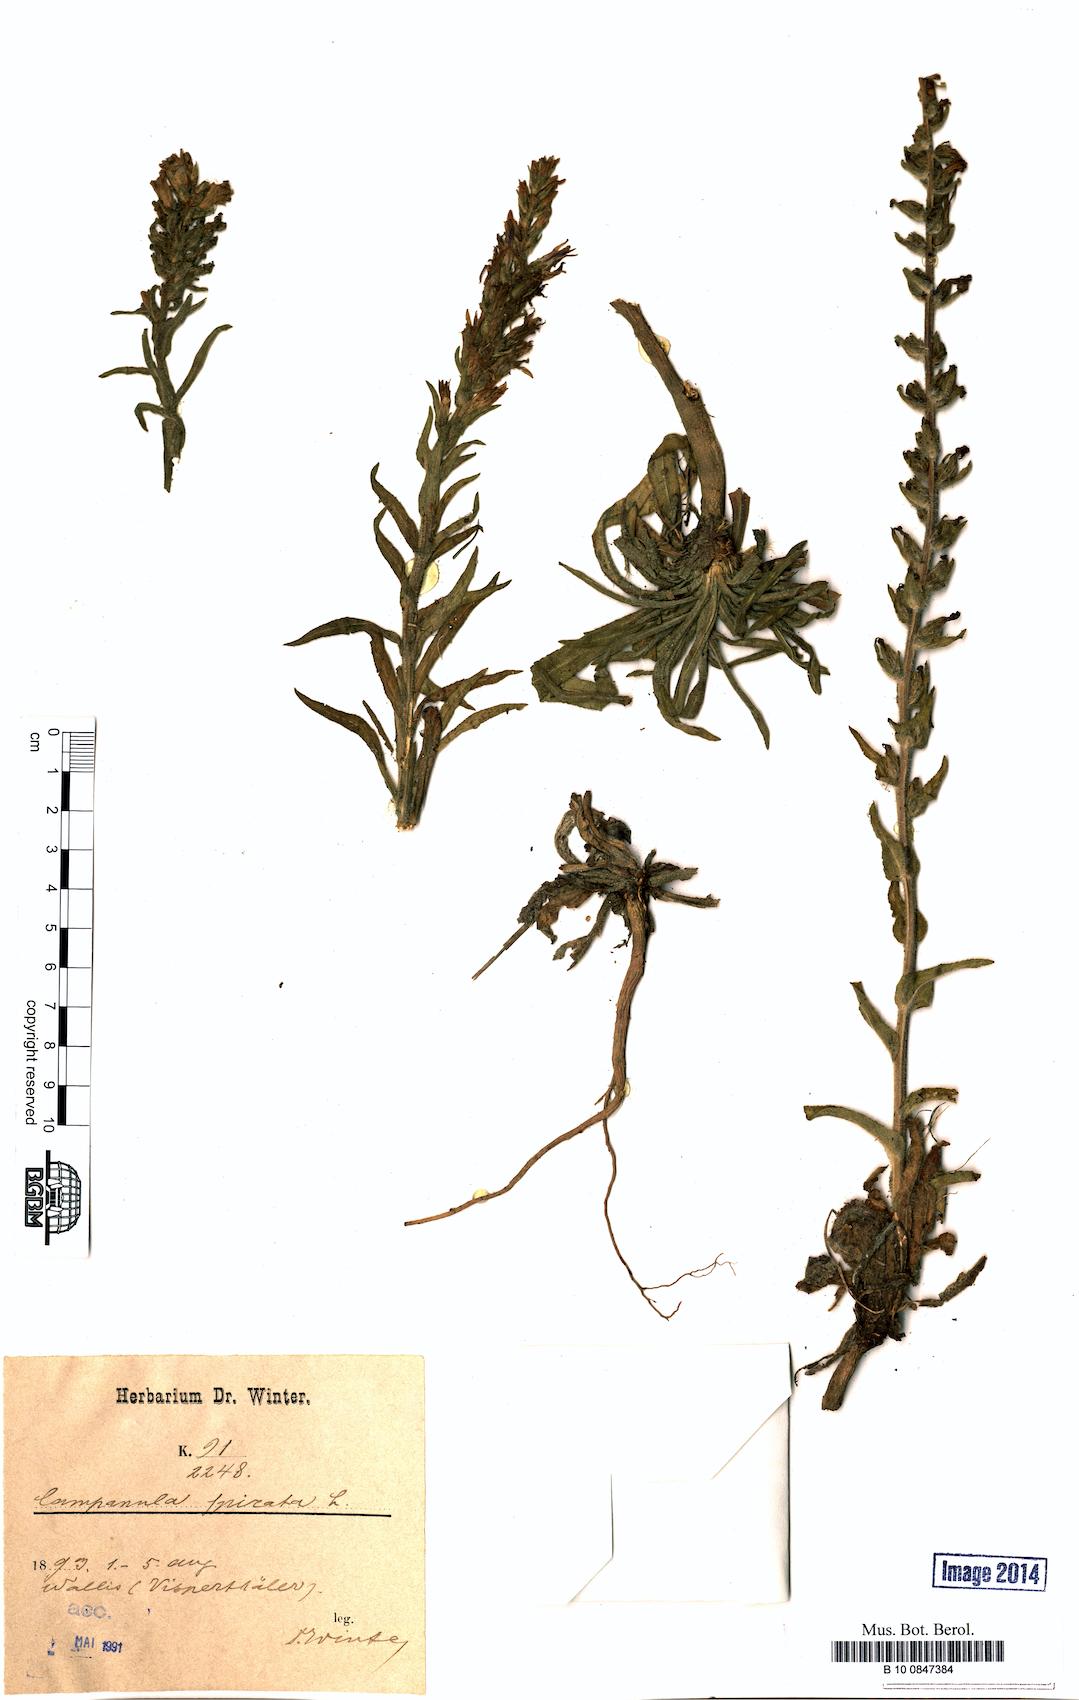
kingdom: Plantae
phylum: Tracheophyta
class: Magnoliopsida
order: Asterales
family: Campanulaceae
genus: Campanula
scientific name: Campanula spicata
